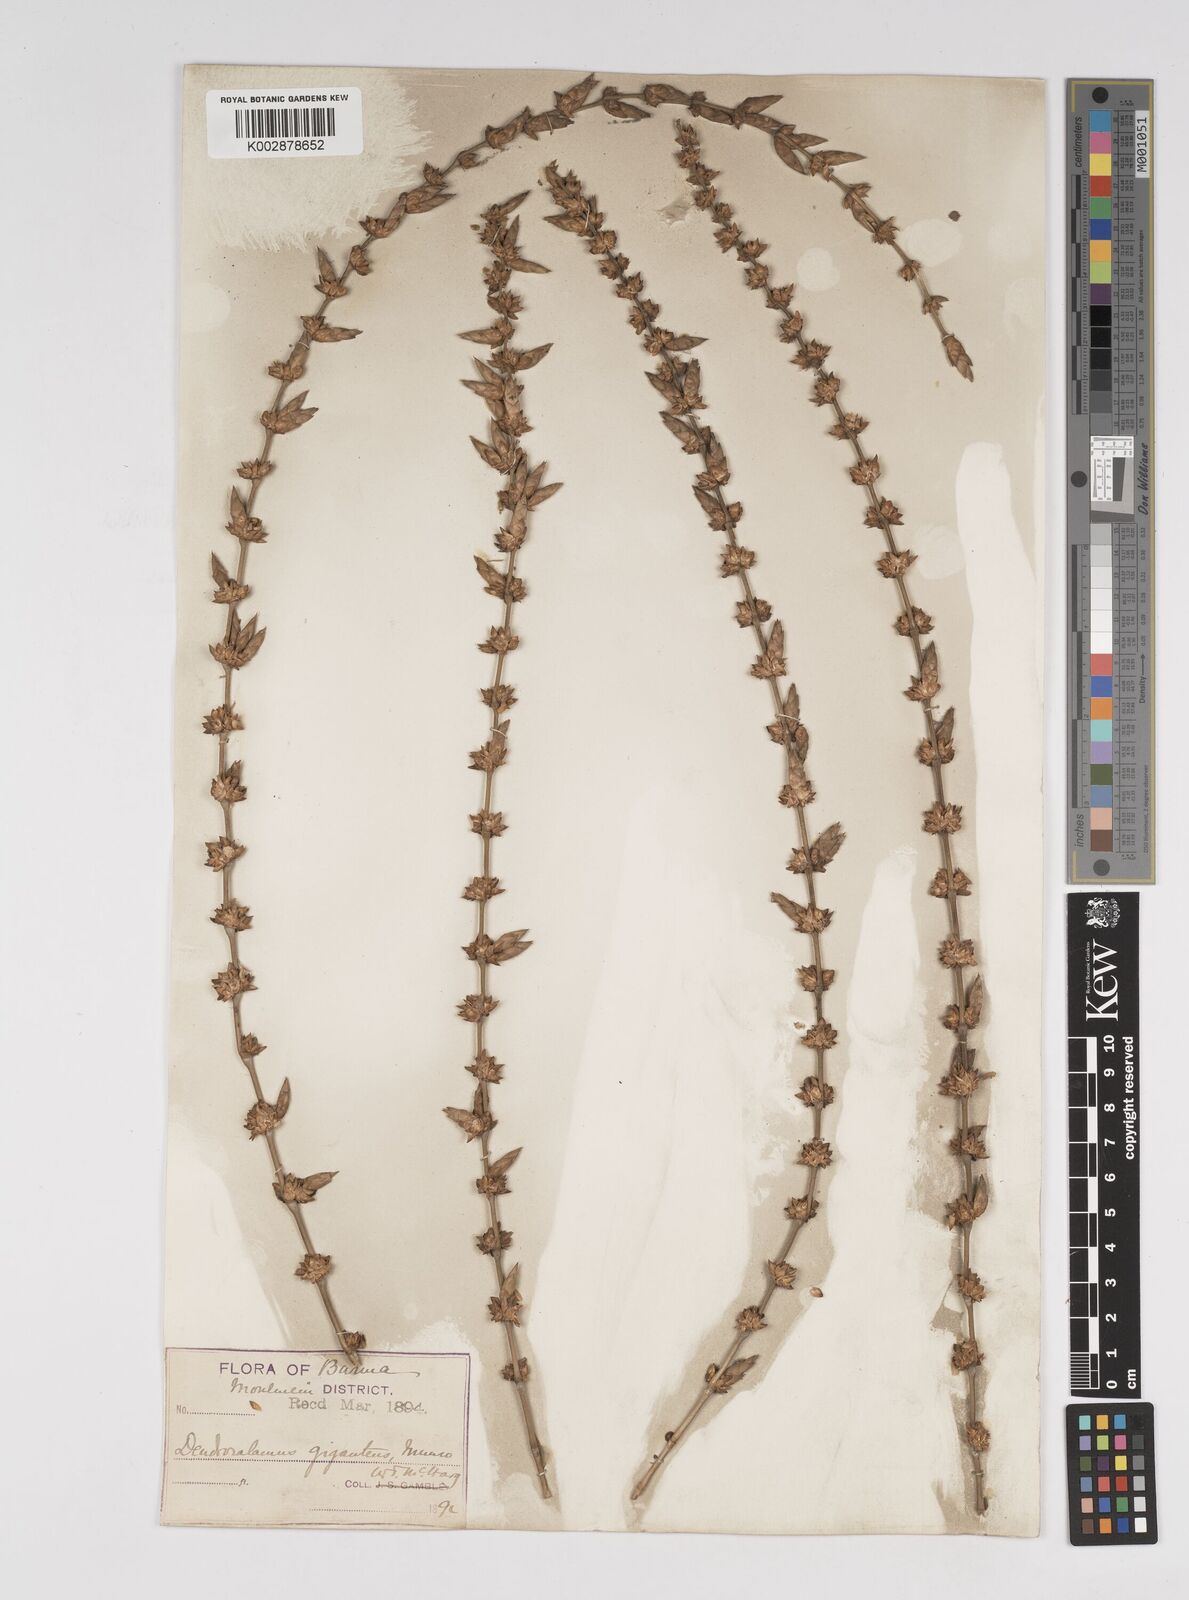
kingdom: Plantae
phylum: Tracheophyta
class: Liliopsida
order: Poales
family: Poaceae
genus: Dendrocalamus
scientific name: Dendrocalamus giganteus
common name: Giant bamboo
